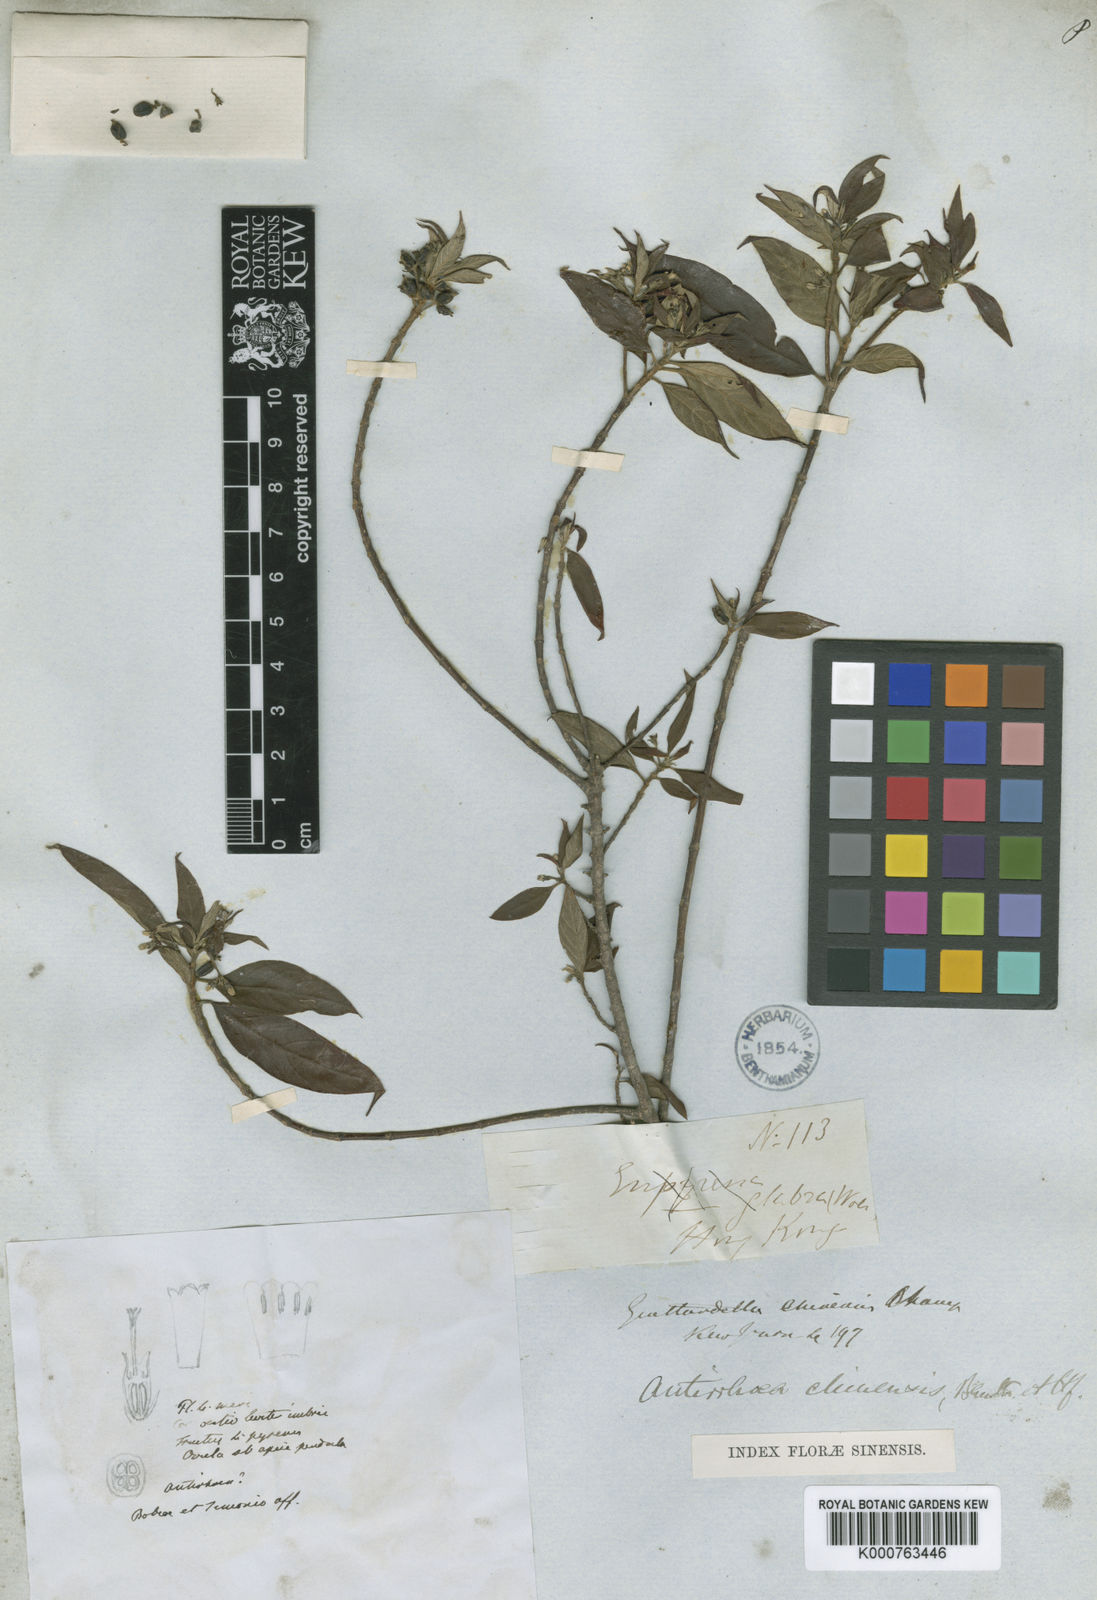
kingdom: Plantae
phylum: Tracheophyta
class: Magnoliopsida
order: Gentianales
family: Rubiaceae
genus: Guettardella
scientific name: Guettardella chinensis
